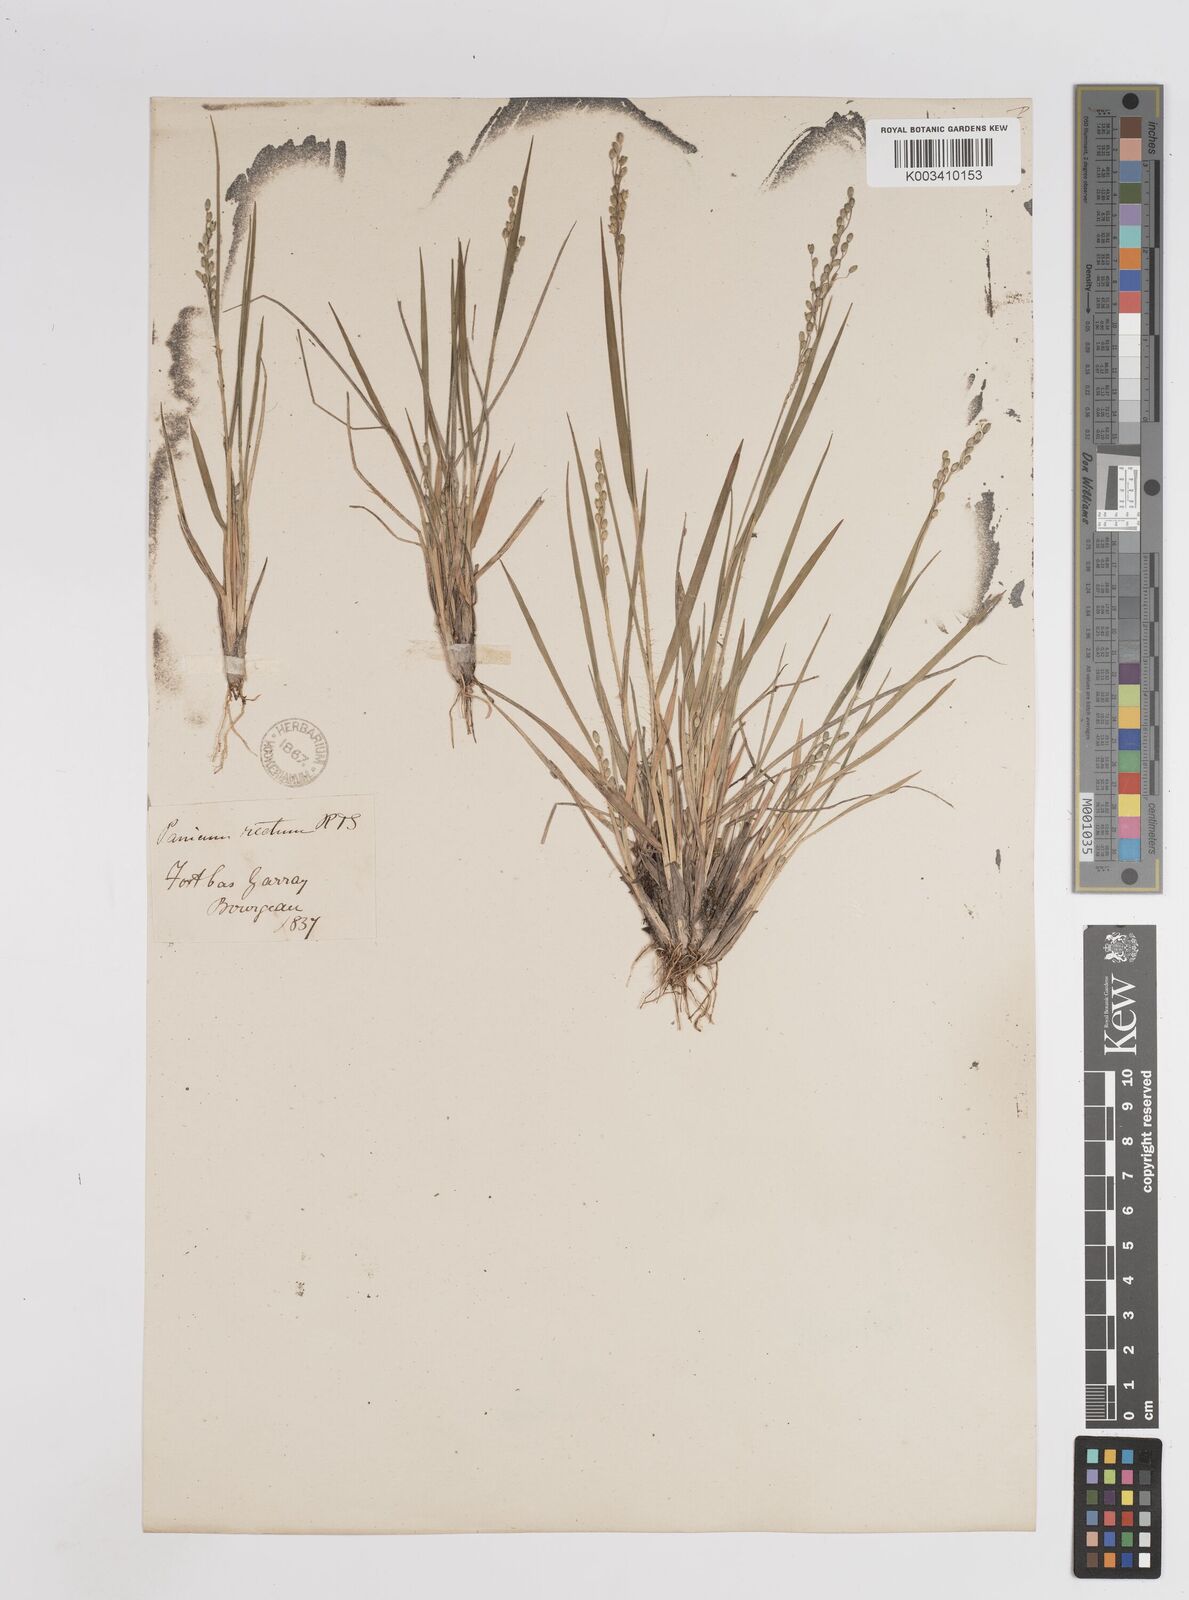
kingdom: Plantae
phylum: Tracheophyta
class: Liliopsida
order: Poales
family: Poaceae
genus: Dichanthelium
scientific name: Dichanthelium depauperatum
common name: Depauperate panicgrass
